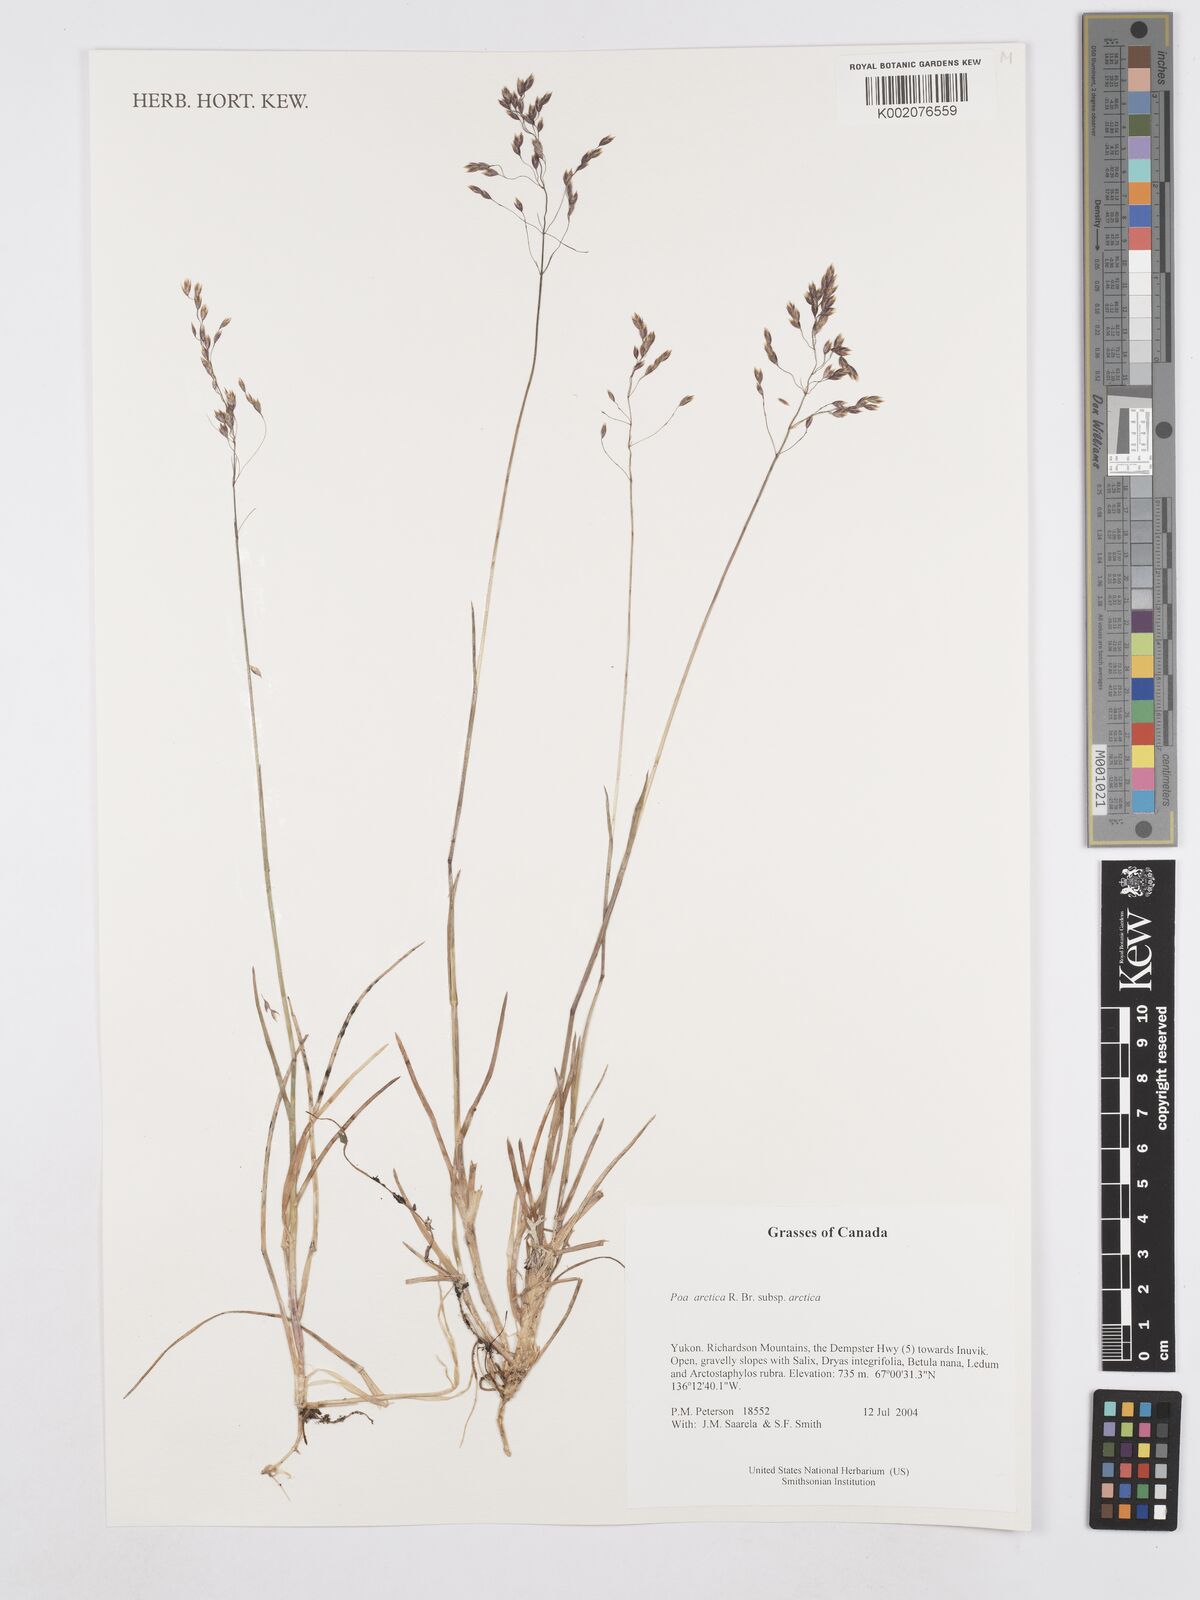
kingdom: Plantae
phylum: Tracheophyta
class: Liliopsida
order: Poales
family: Poaceae
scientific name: Poaceae
